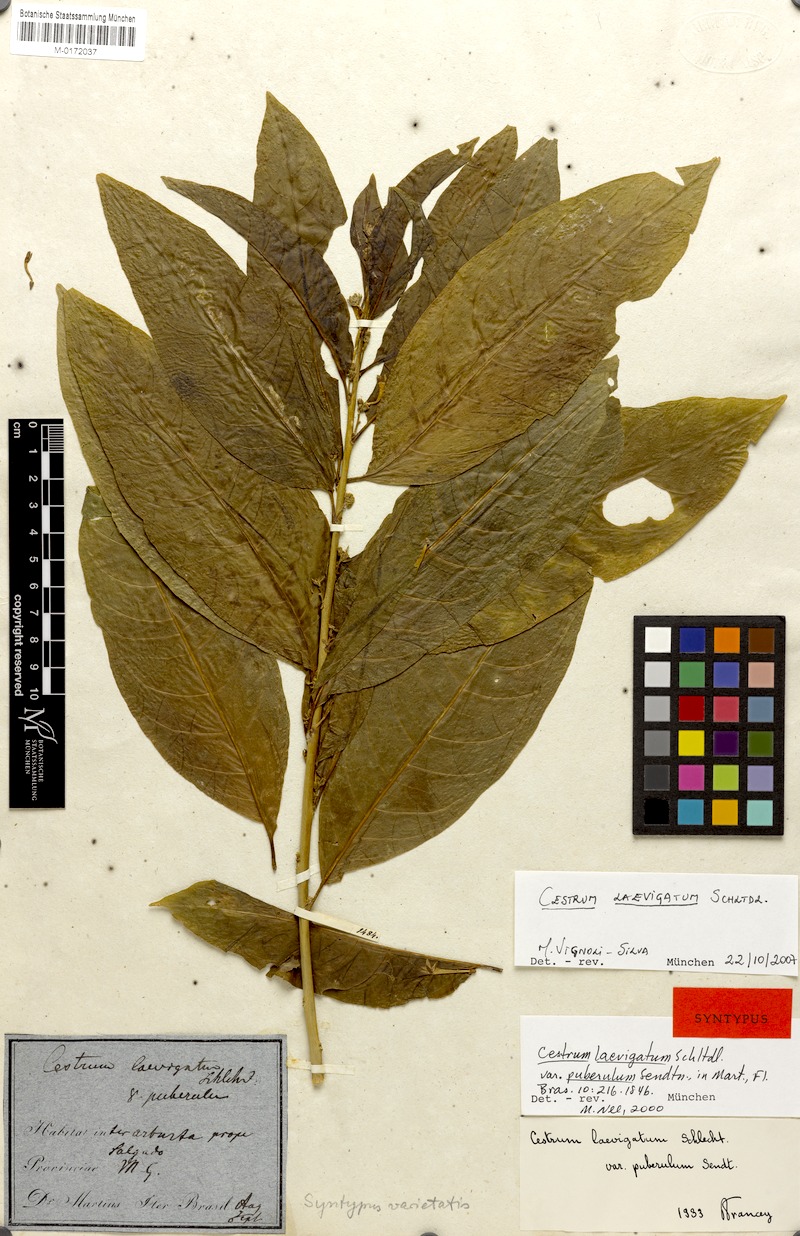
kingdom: Plantae
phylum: Tracheophyta
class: Magnoliopsida
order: Solanales
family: Solanaceae
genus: Cestrum
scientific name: Cestrum laevigatum
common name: Inkberry
